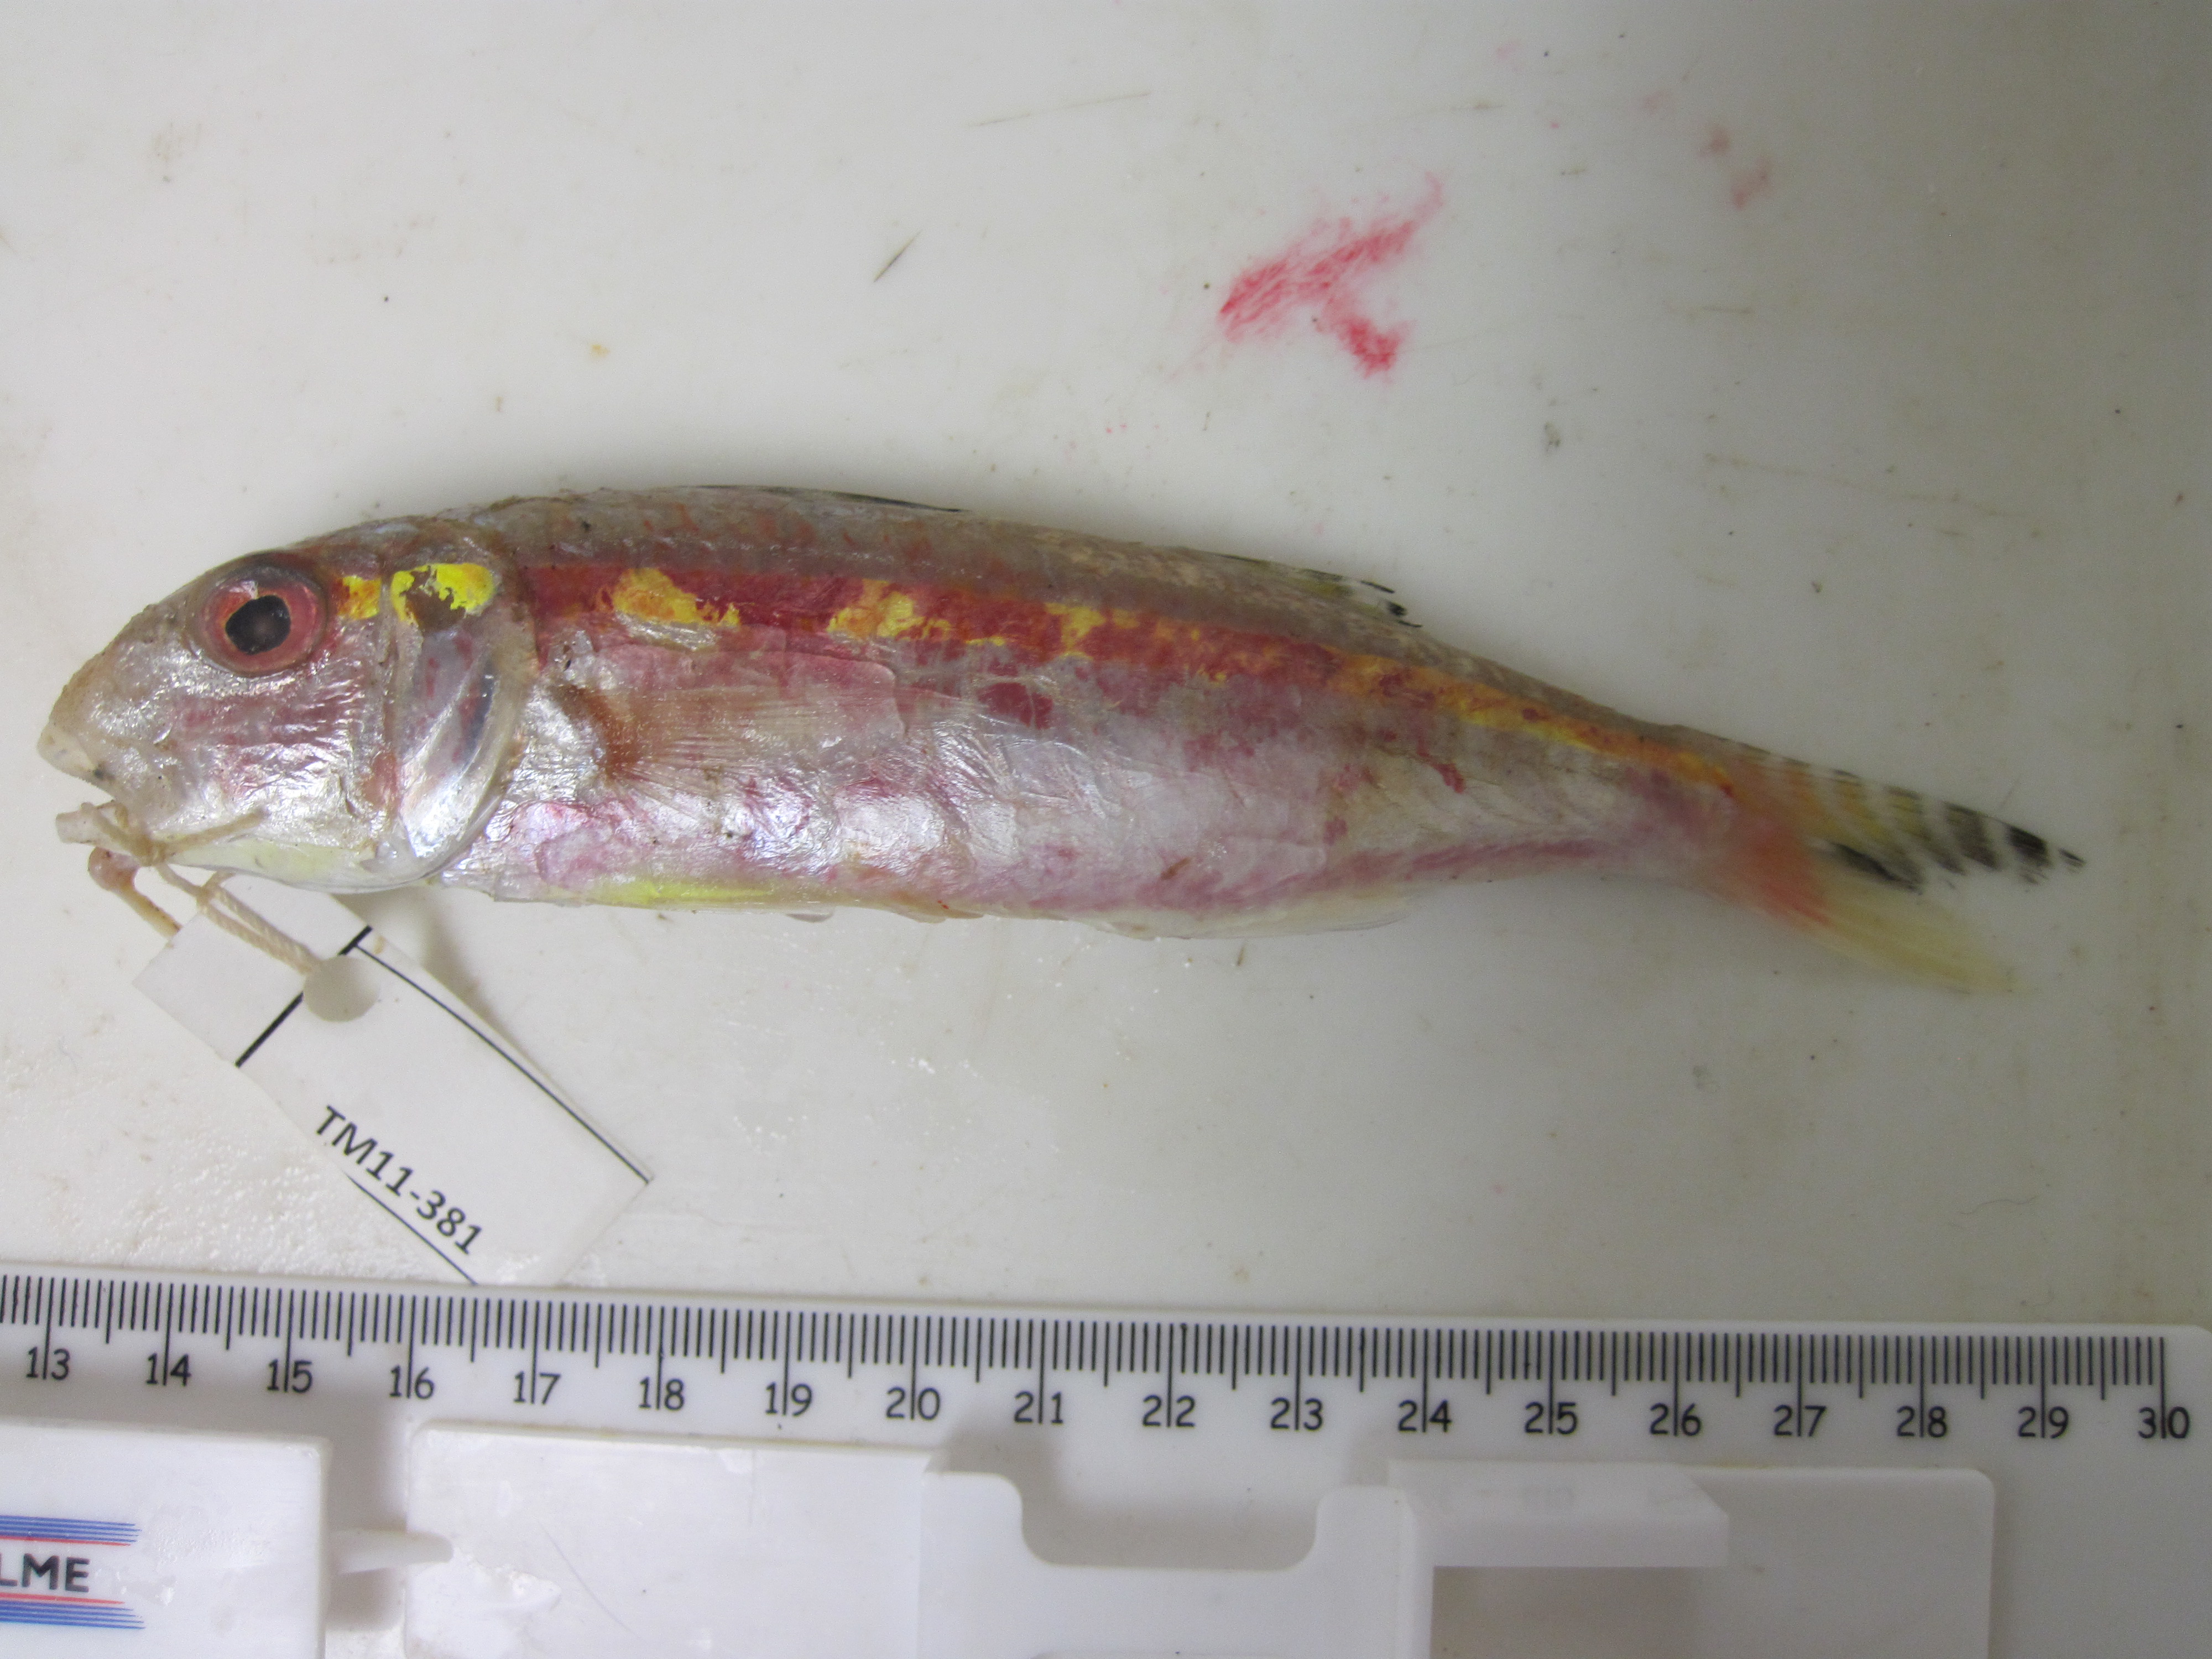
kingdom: Animalia
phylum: Chordata
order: Perciformes
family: Mullidae
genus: Upeneus
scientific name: Upeneus moluccensis
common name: Goldband goatfish
